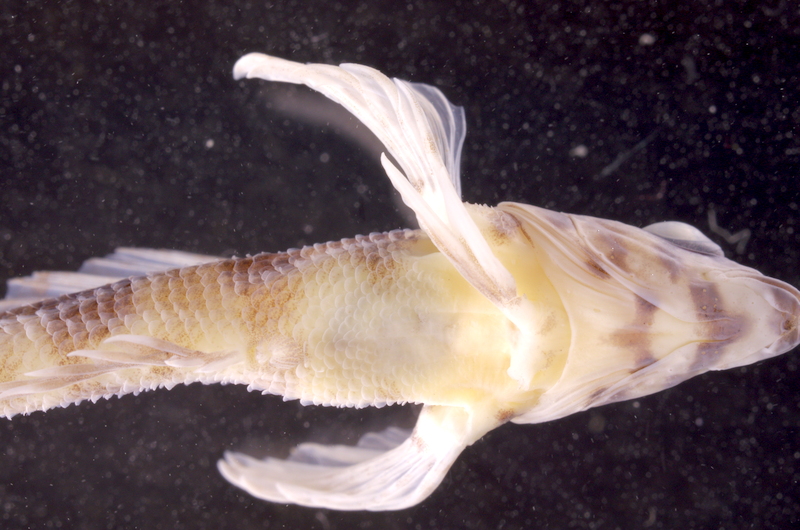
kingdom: Animalia
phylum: Chordata
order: Perciformes
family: Labrisomidae
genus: Malacoctenus
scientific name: Malacoctenus carrowi
